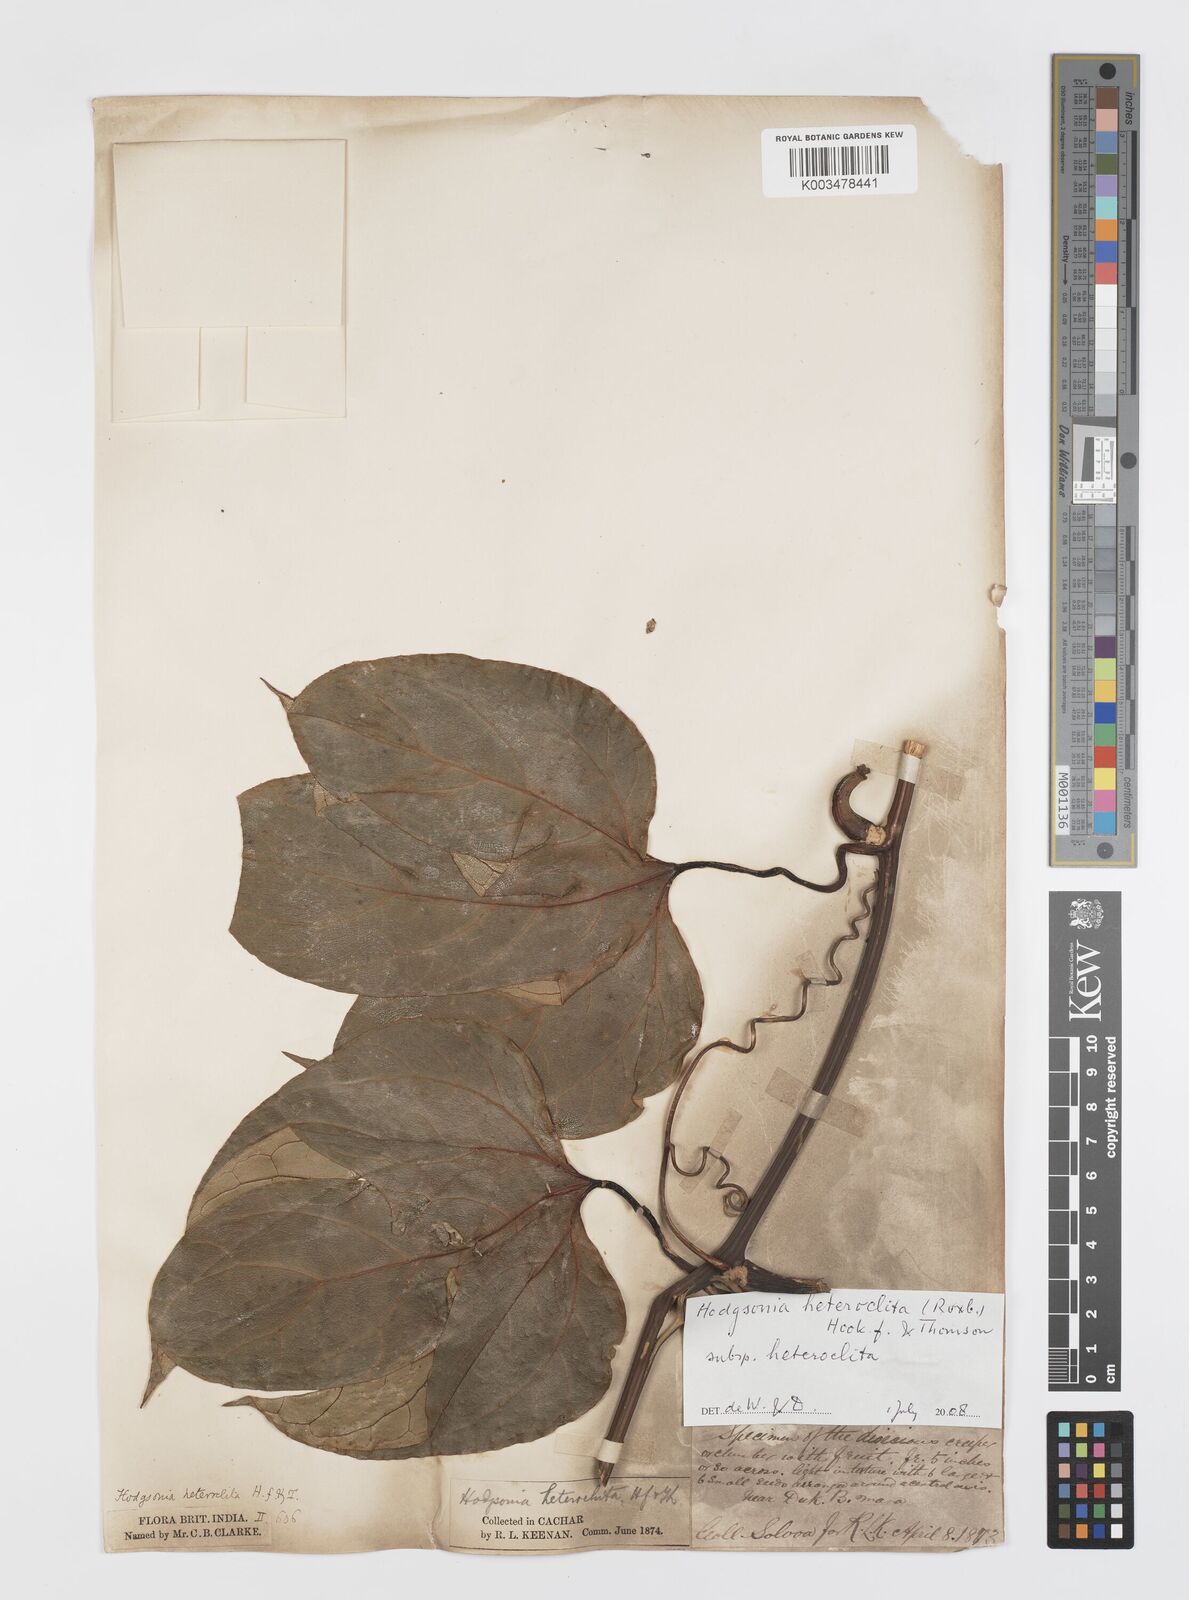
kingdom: Plantae
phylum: Tracheophyta
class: Magnoliopsida
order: Cucurbitales
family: Cucurbitaceae
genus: Hodgsonia
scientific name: Hodgsonia macrocarpa
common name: Chinese lardfruit
